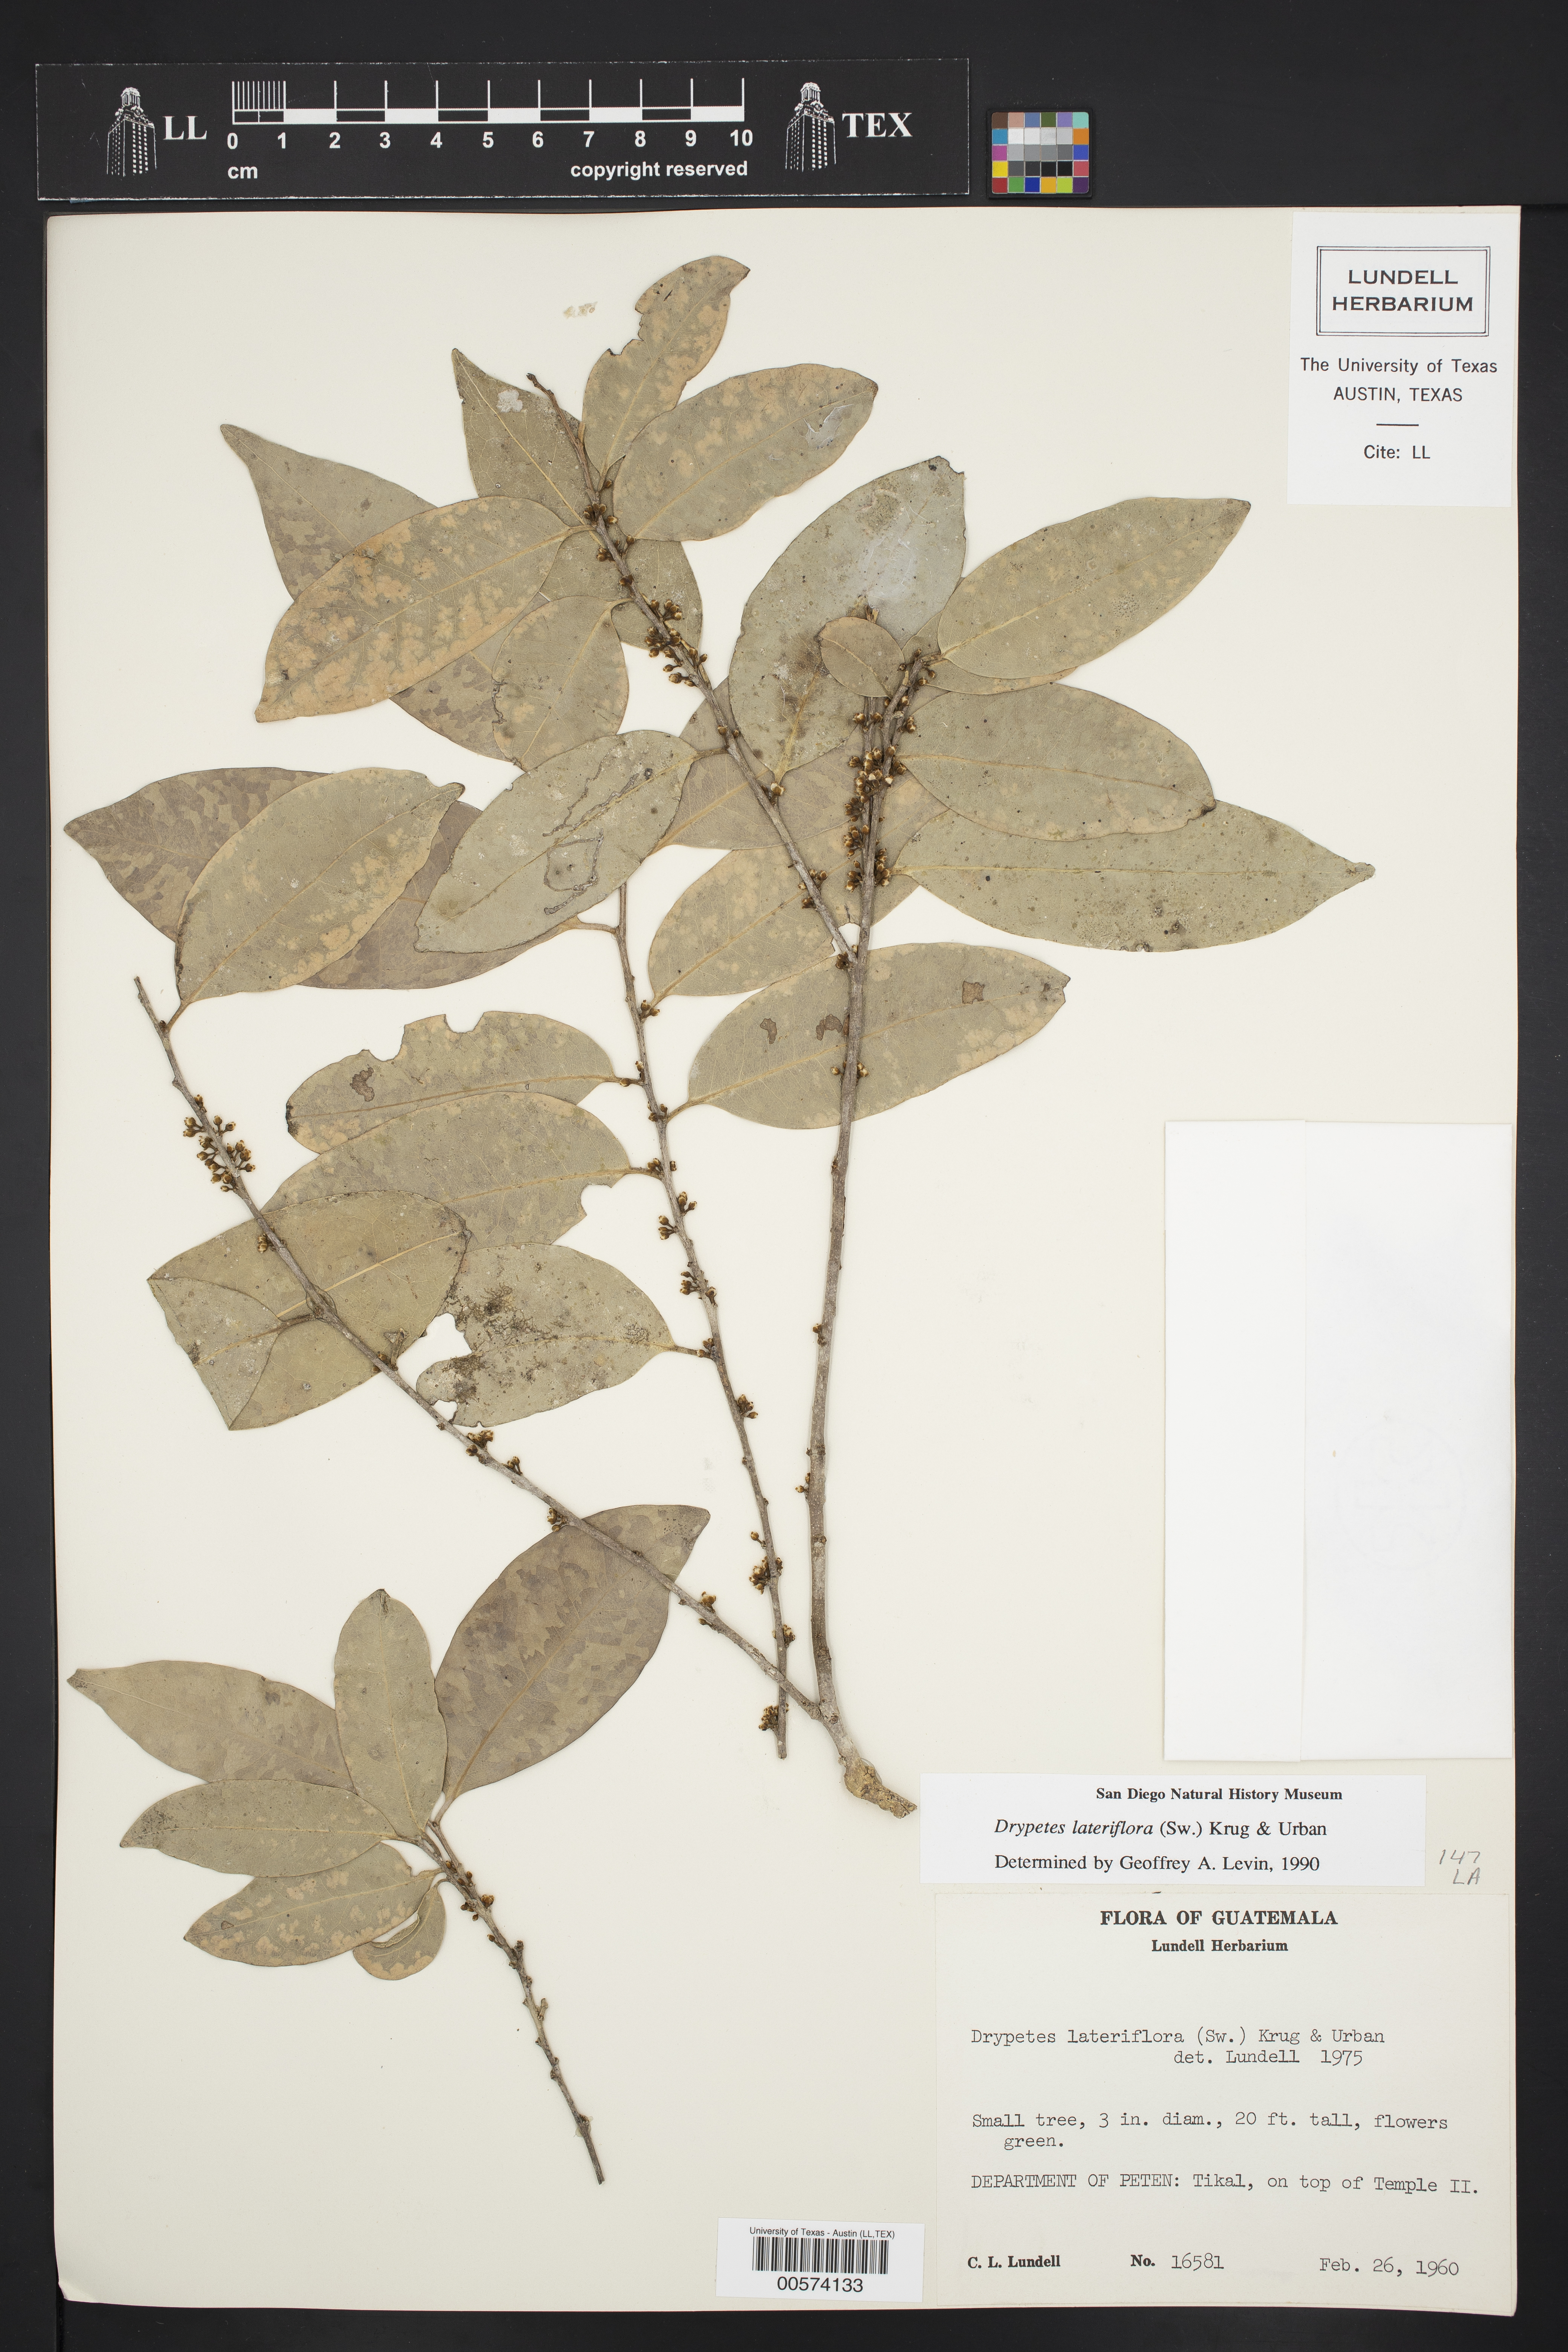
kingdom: Plantae
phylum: Tracheophyta
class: Magnoliopsida
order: Malpighiales
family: Putranjivaceae
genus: Drypetes
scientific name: Drypetes lateriflora
